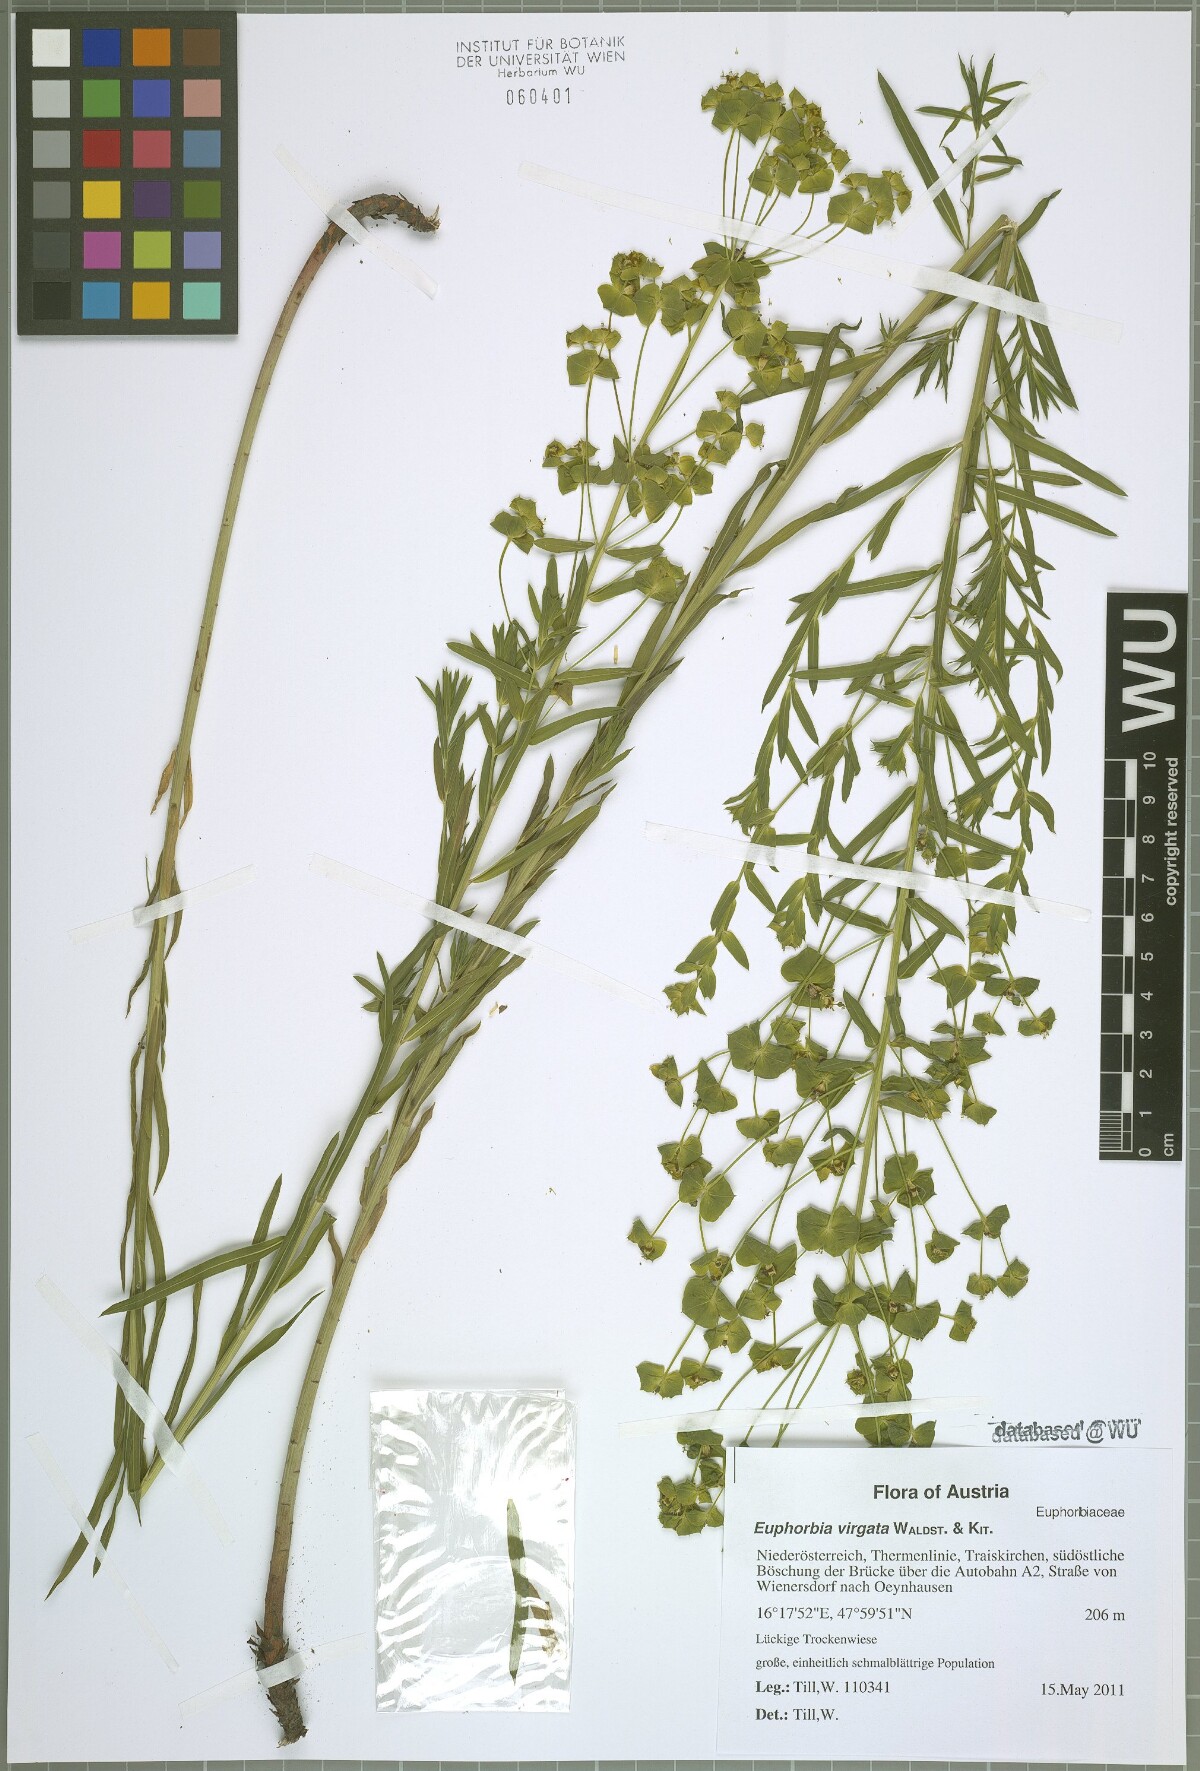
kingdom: Plantae
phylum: Tracheophyta
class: Magnoliopsida
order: Malpighiales
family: Euphorbiaceae
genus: Euphorbia
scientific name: Euphorbia virgata
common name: Leafy spurge
